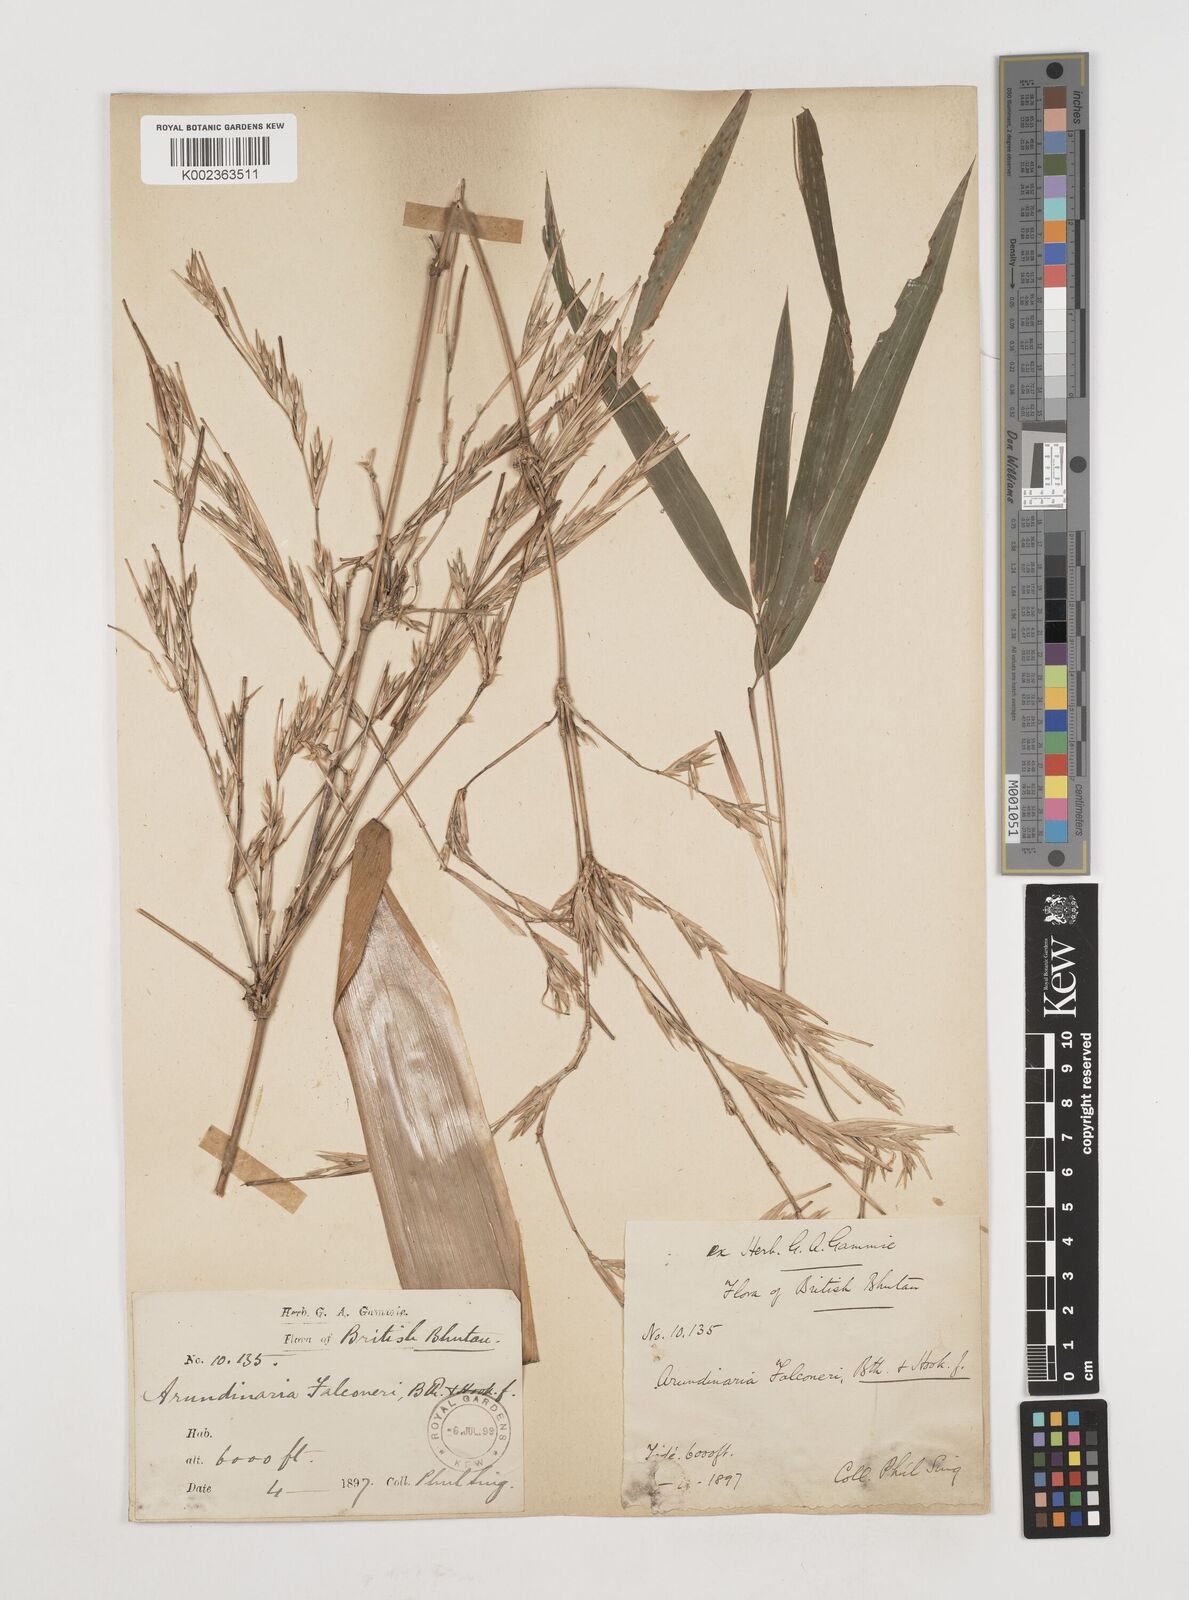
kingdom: Plantae
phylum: Tracheophyta
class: Liliopsida
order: Poales
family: Poaceae
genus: Himalayacalamus
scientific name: Himalayacalamus falconeri
